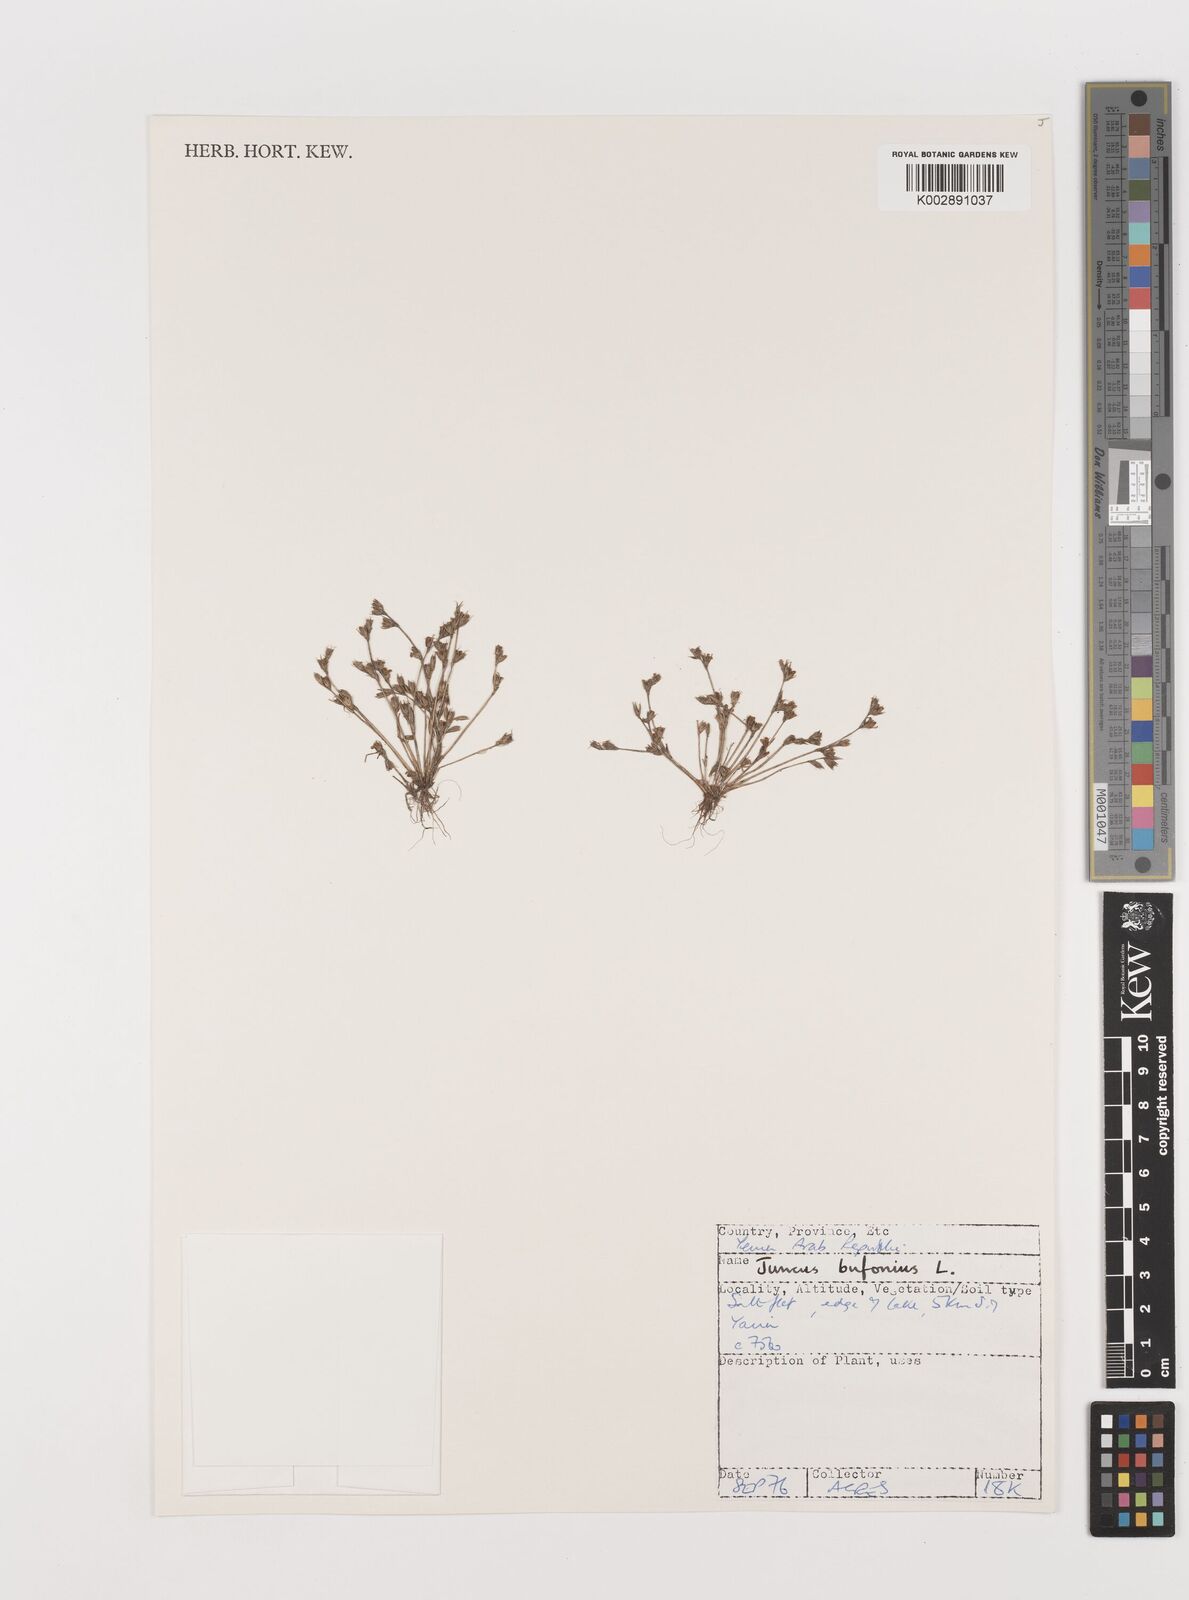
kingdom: Plantae
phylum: Tracheophyta
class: Liliopsida
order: Poales
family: Juncaceae
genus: Juncus
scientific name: Juncus bufonius
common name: Toad rush
